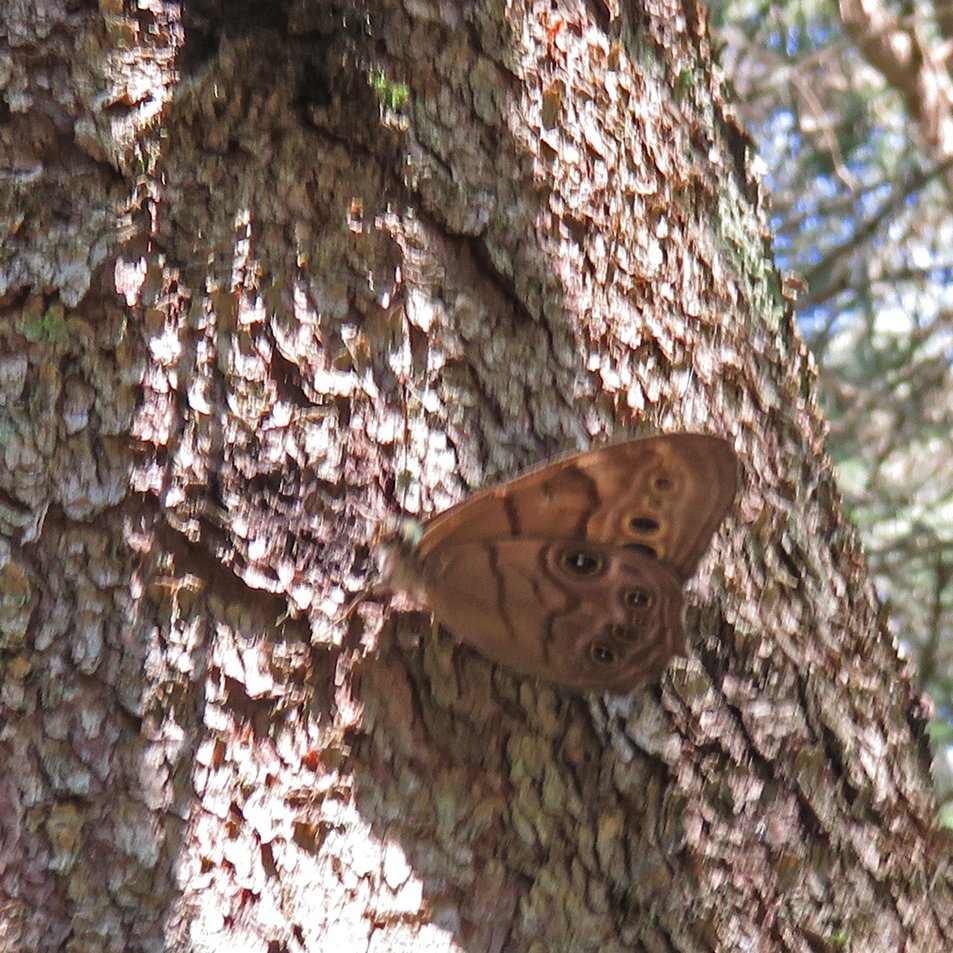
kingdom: Animalia
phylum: Arthropoda
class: Insecta
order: Lepidoptera
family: Nymphalidae
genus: Lethe
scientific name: Lethe anthedon
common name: Northern Pearly-Eye
